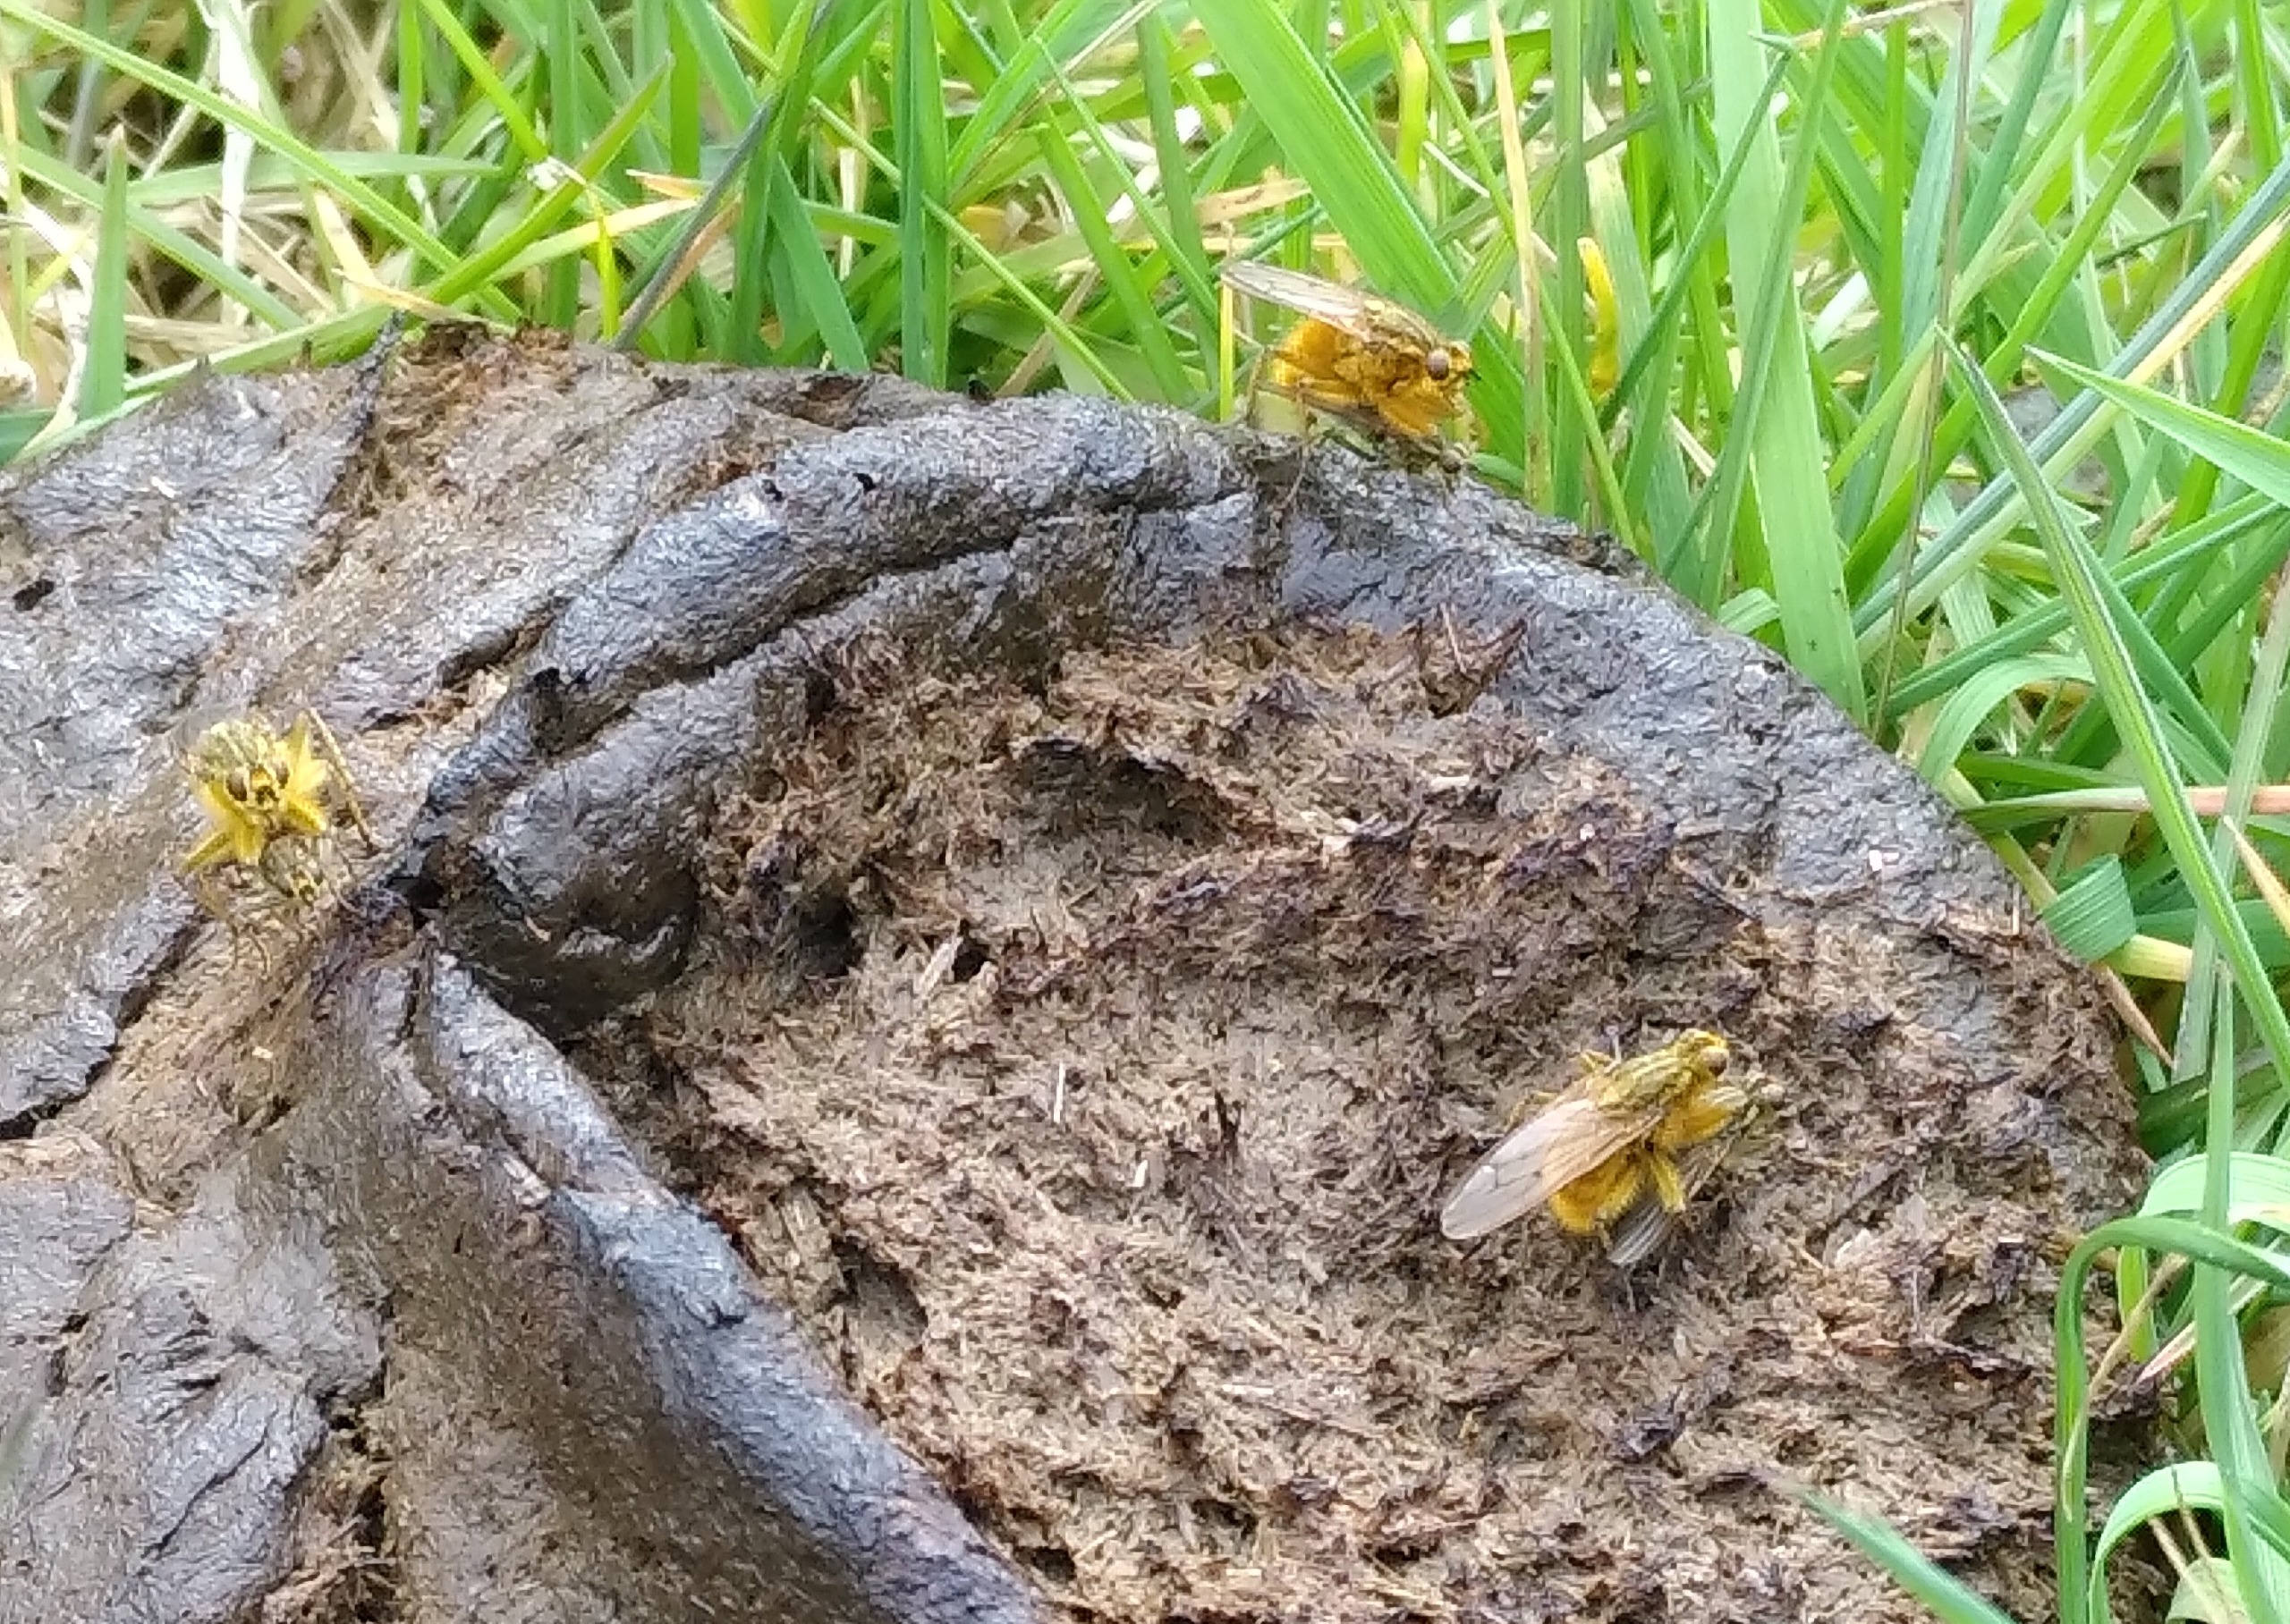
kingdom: Animalia
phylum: Arthropoda
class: Insecta
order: Diptera
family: Scathophagidae
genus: Scathophaga
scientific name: Scathophaga stercoraria
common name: Almindelig gødningsflue
